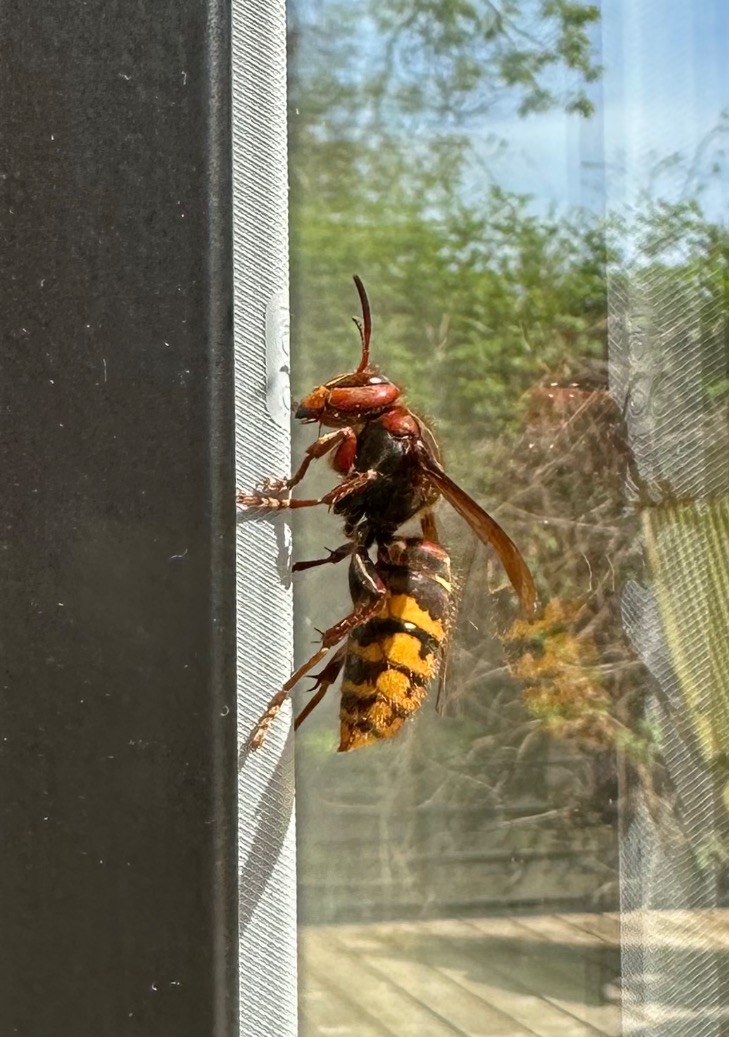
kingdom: Animalia
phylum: Arthropoda
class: Insecta
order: Hymenoptera
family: Vespidae
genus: Vespa
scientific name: Vespa crabro
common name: Stor gedehams
